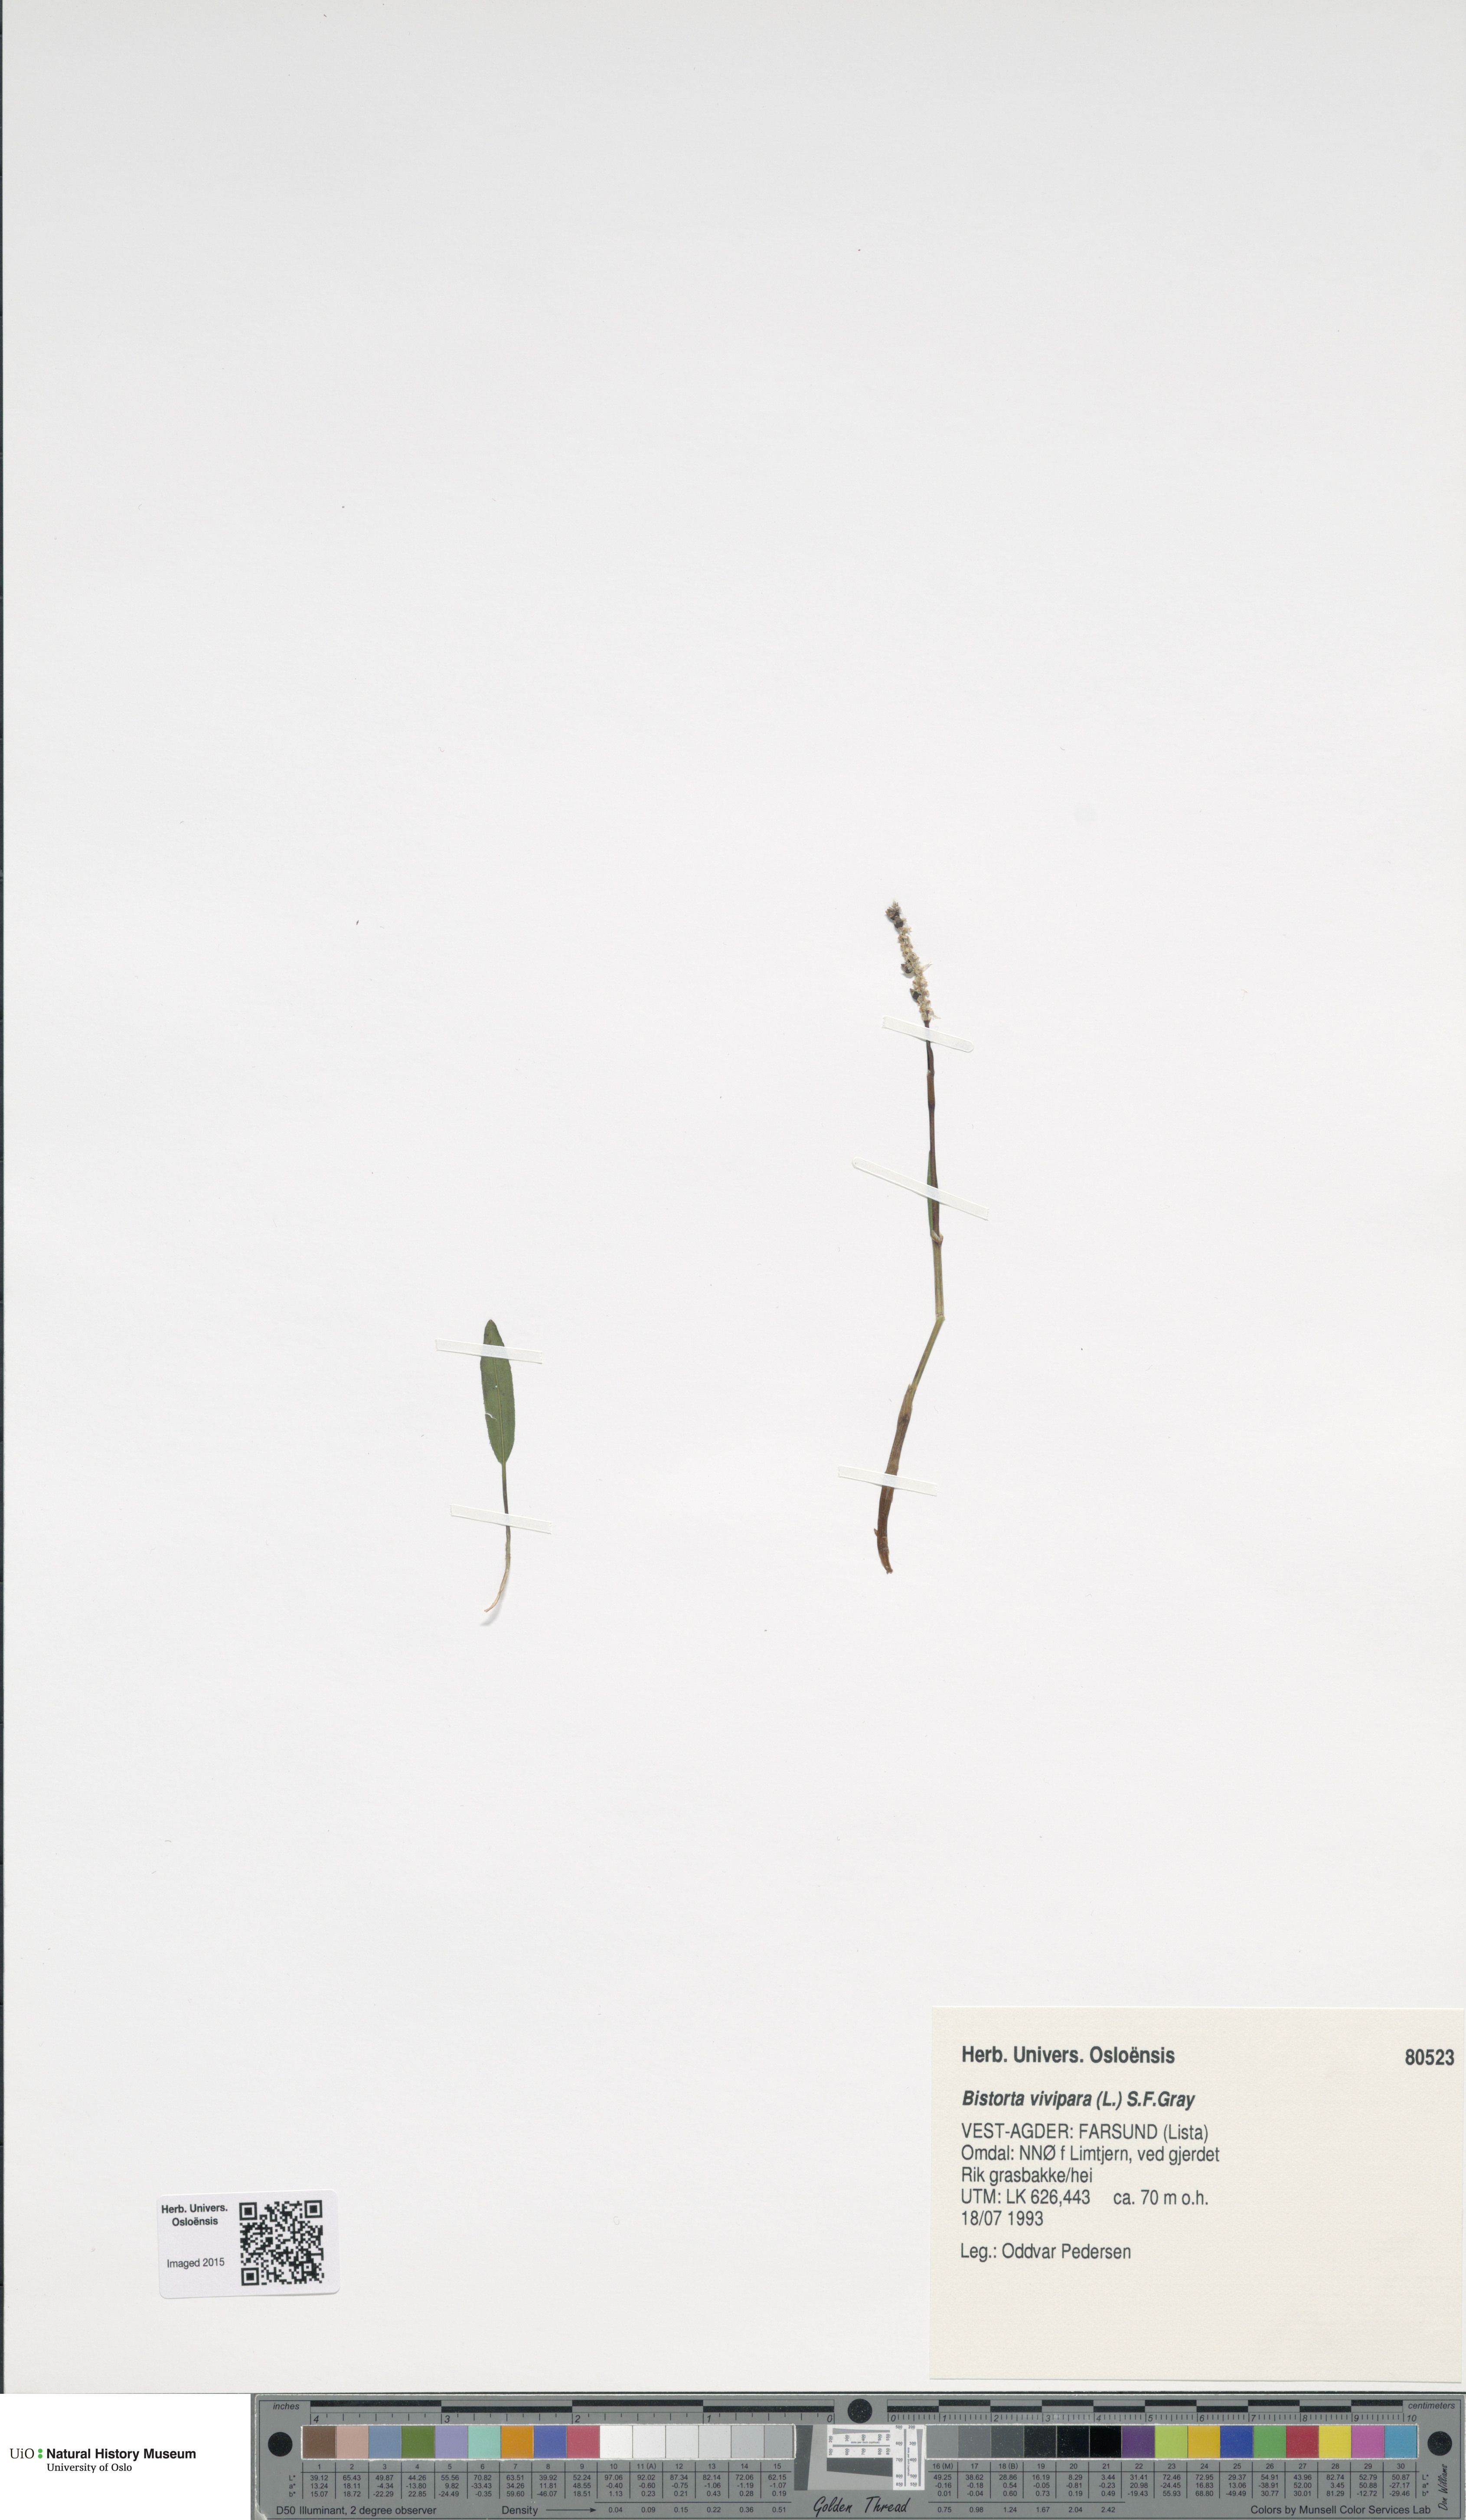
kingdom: Plantae
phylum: Tracheophyta
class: Magnoliopsida
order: Caryophyllales
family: Polygonaceae
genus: Bistorta
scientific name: Bistorta vivipara
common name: Alpine bistort
